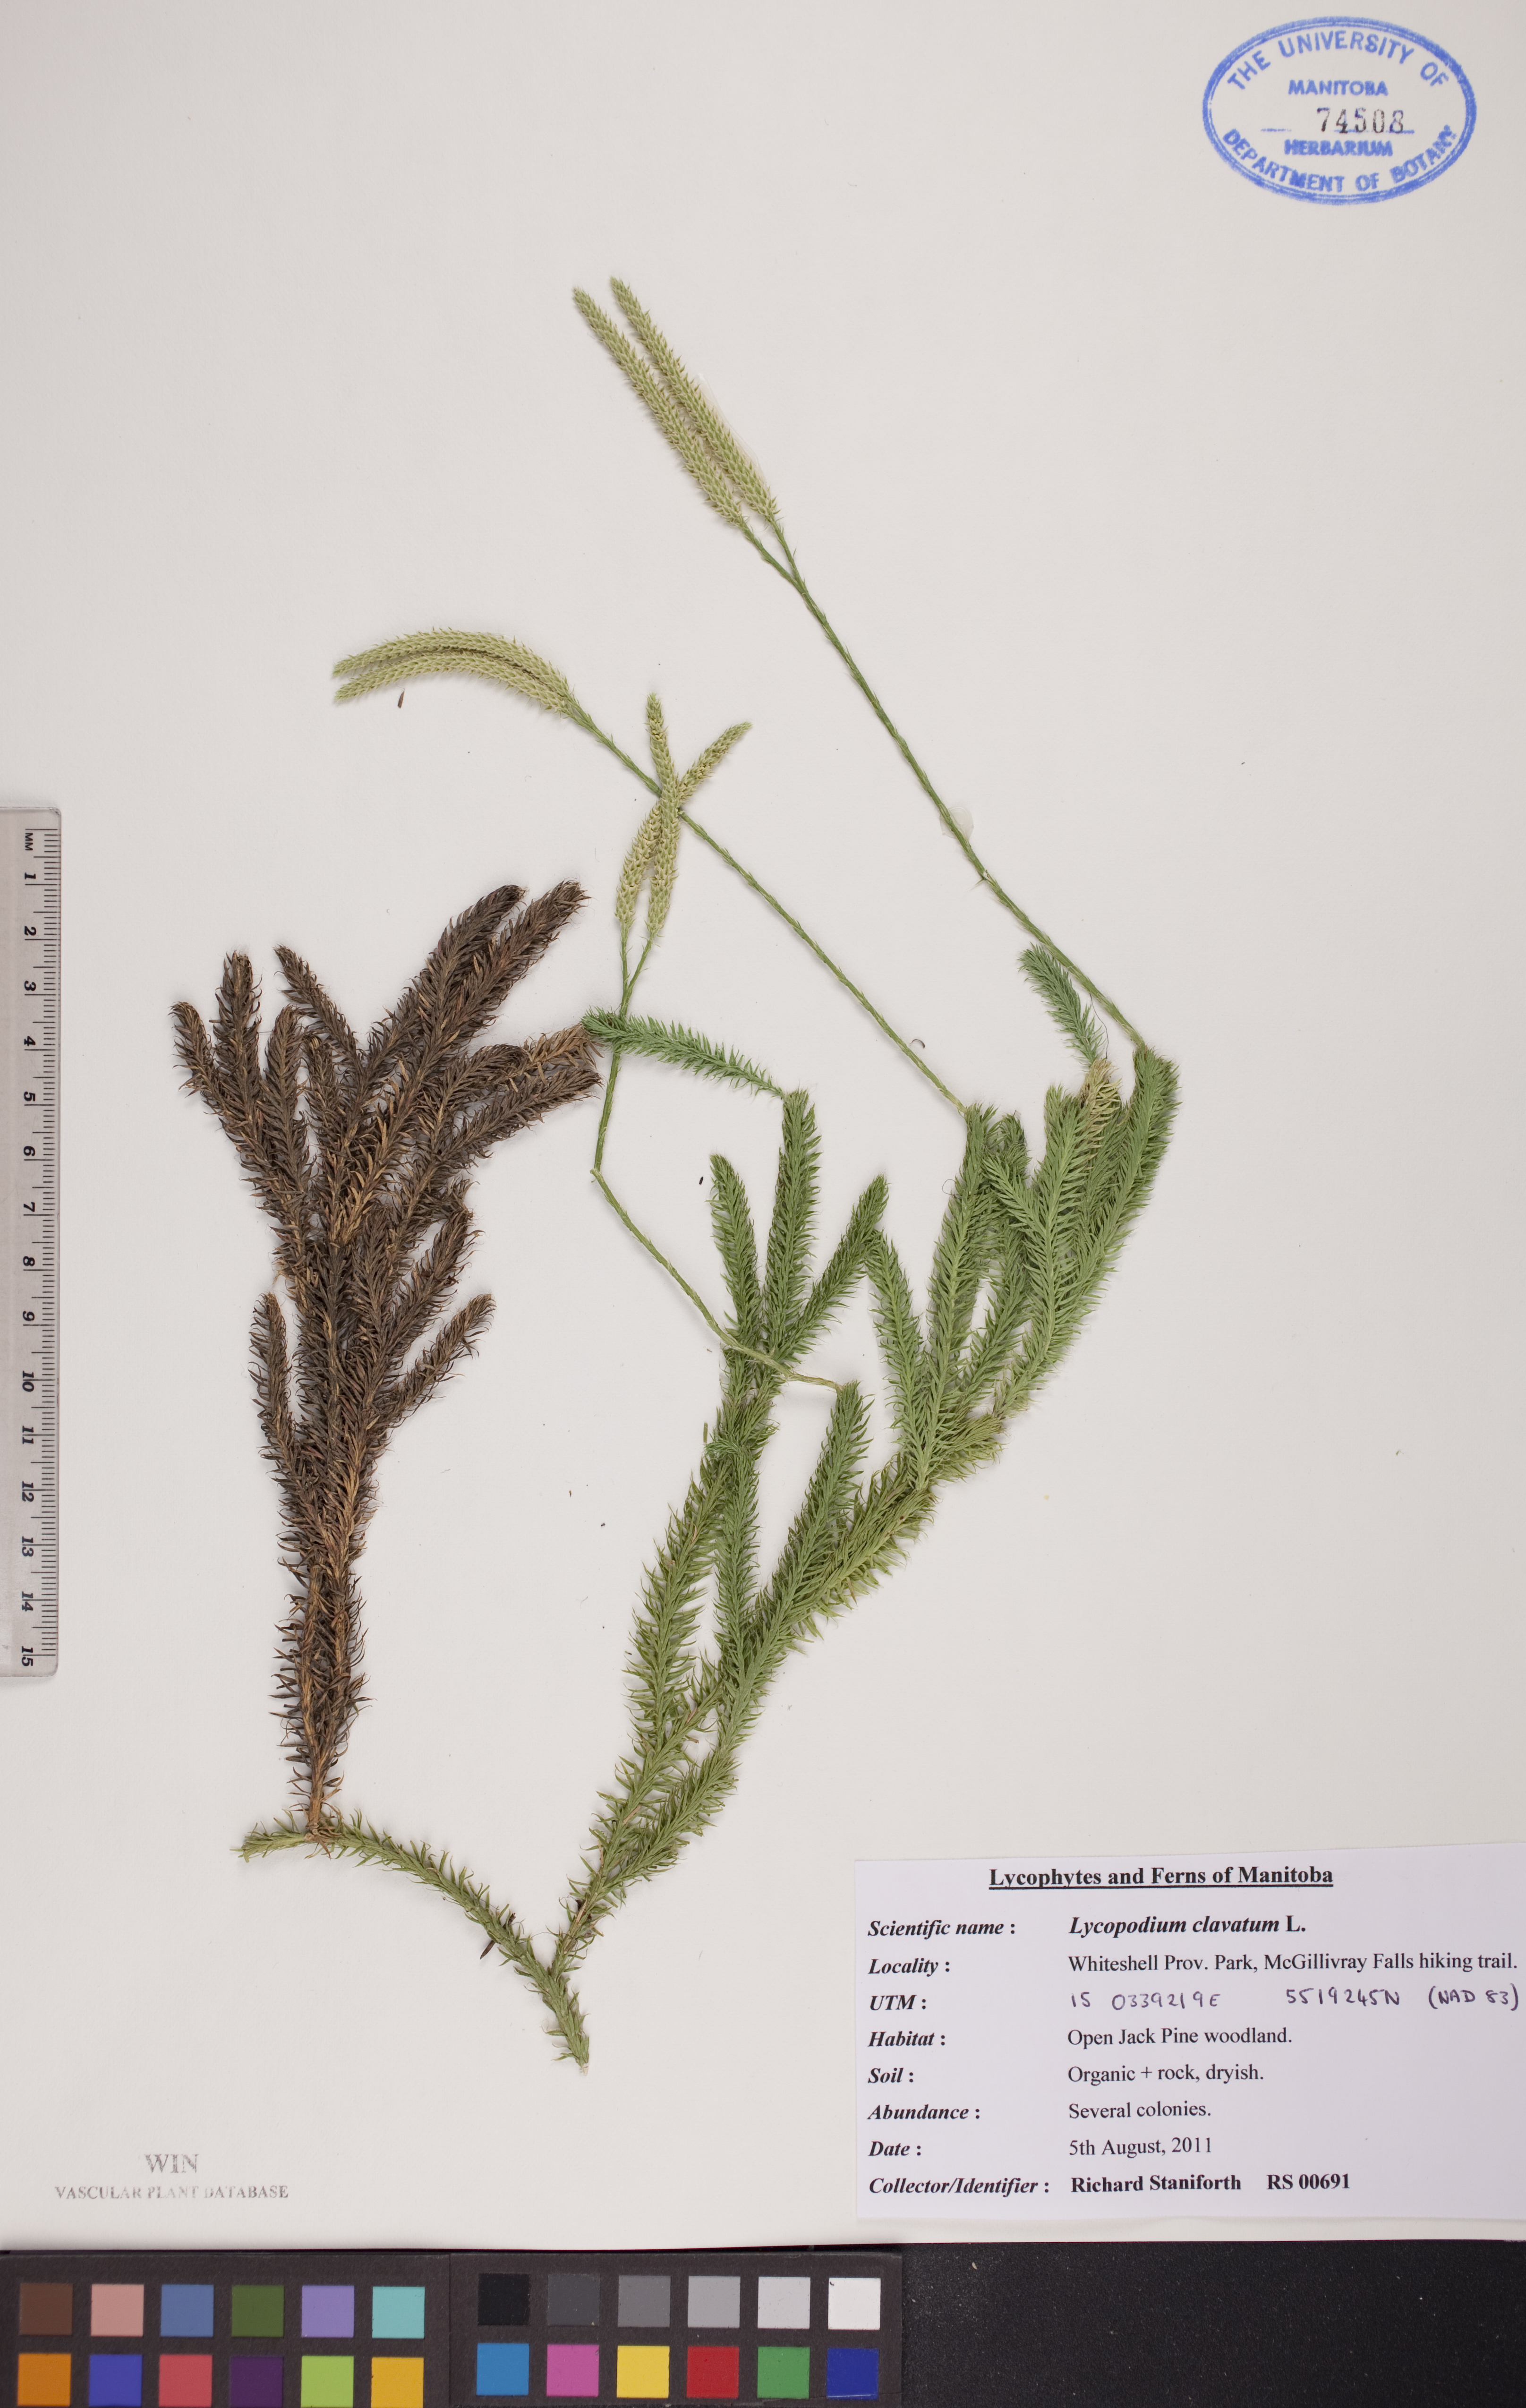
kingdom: Plantae
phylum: Tracheophyta
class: Lycopodiopsida
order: Lycopodiales
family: Lycopodiaceae
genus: Lycopodium
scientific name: Lycopodium clavatum
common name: Stag's-horn clubmoss
